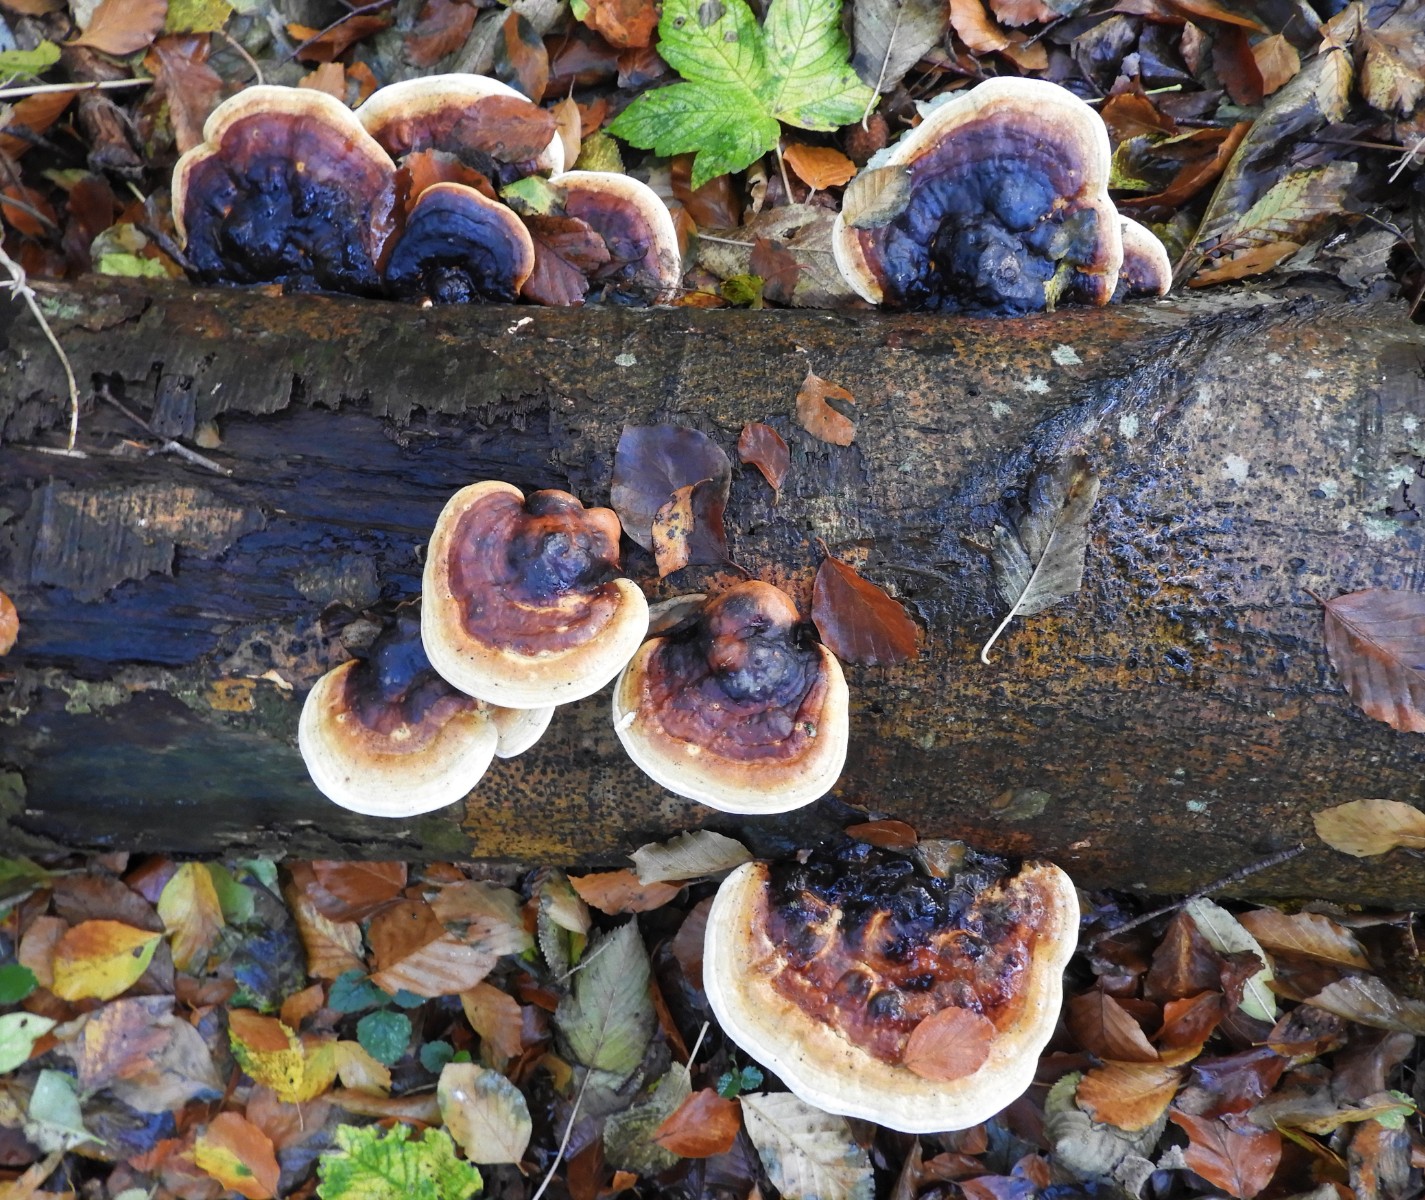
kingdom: Fungi
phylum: Basidiomycota
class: Agaricomycetes
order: Polyporales
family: Fomitopsidaceae
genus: Fomitopsis
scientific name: Fomitopsis pinicola
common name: randbæltet hovporesvamp
